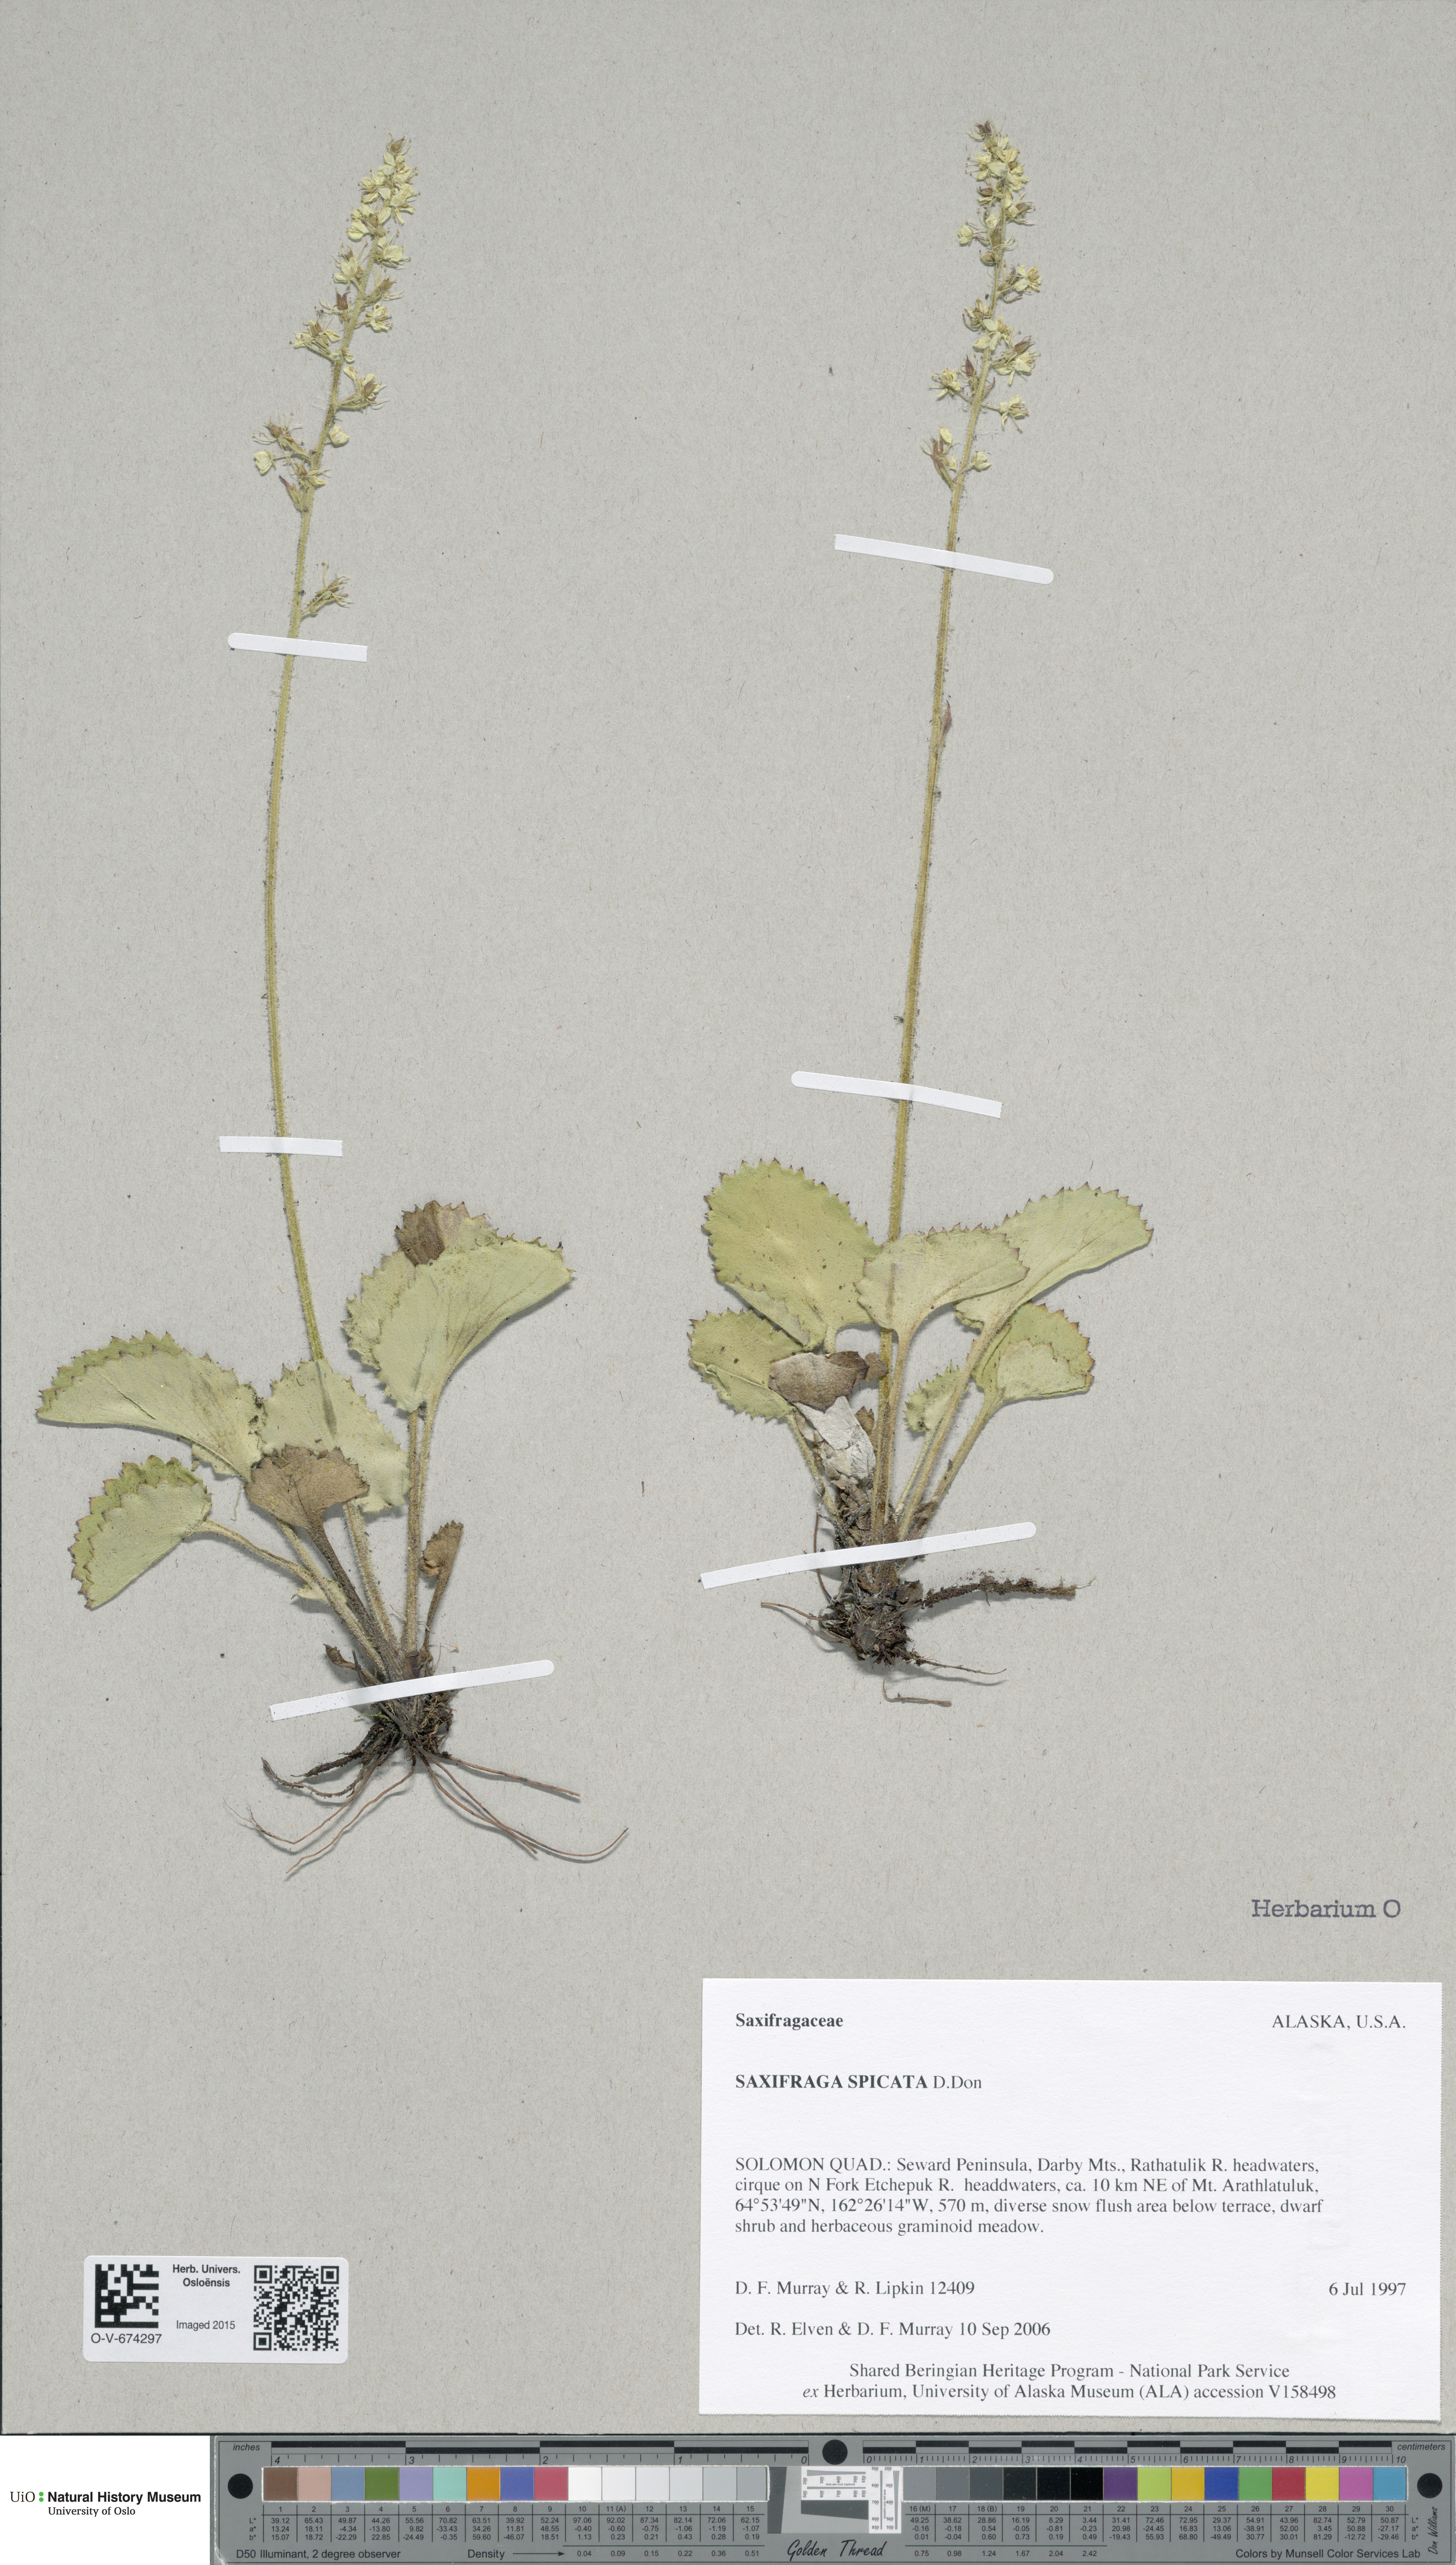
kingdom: Plantae
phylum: Tracheophyta
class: Magnoliopsida
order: Saxifragales
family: Saxifragaceae
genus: Micranthes
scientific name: Micranthes spicata
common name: Spiked saxifrage
